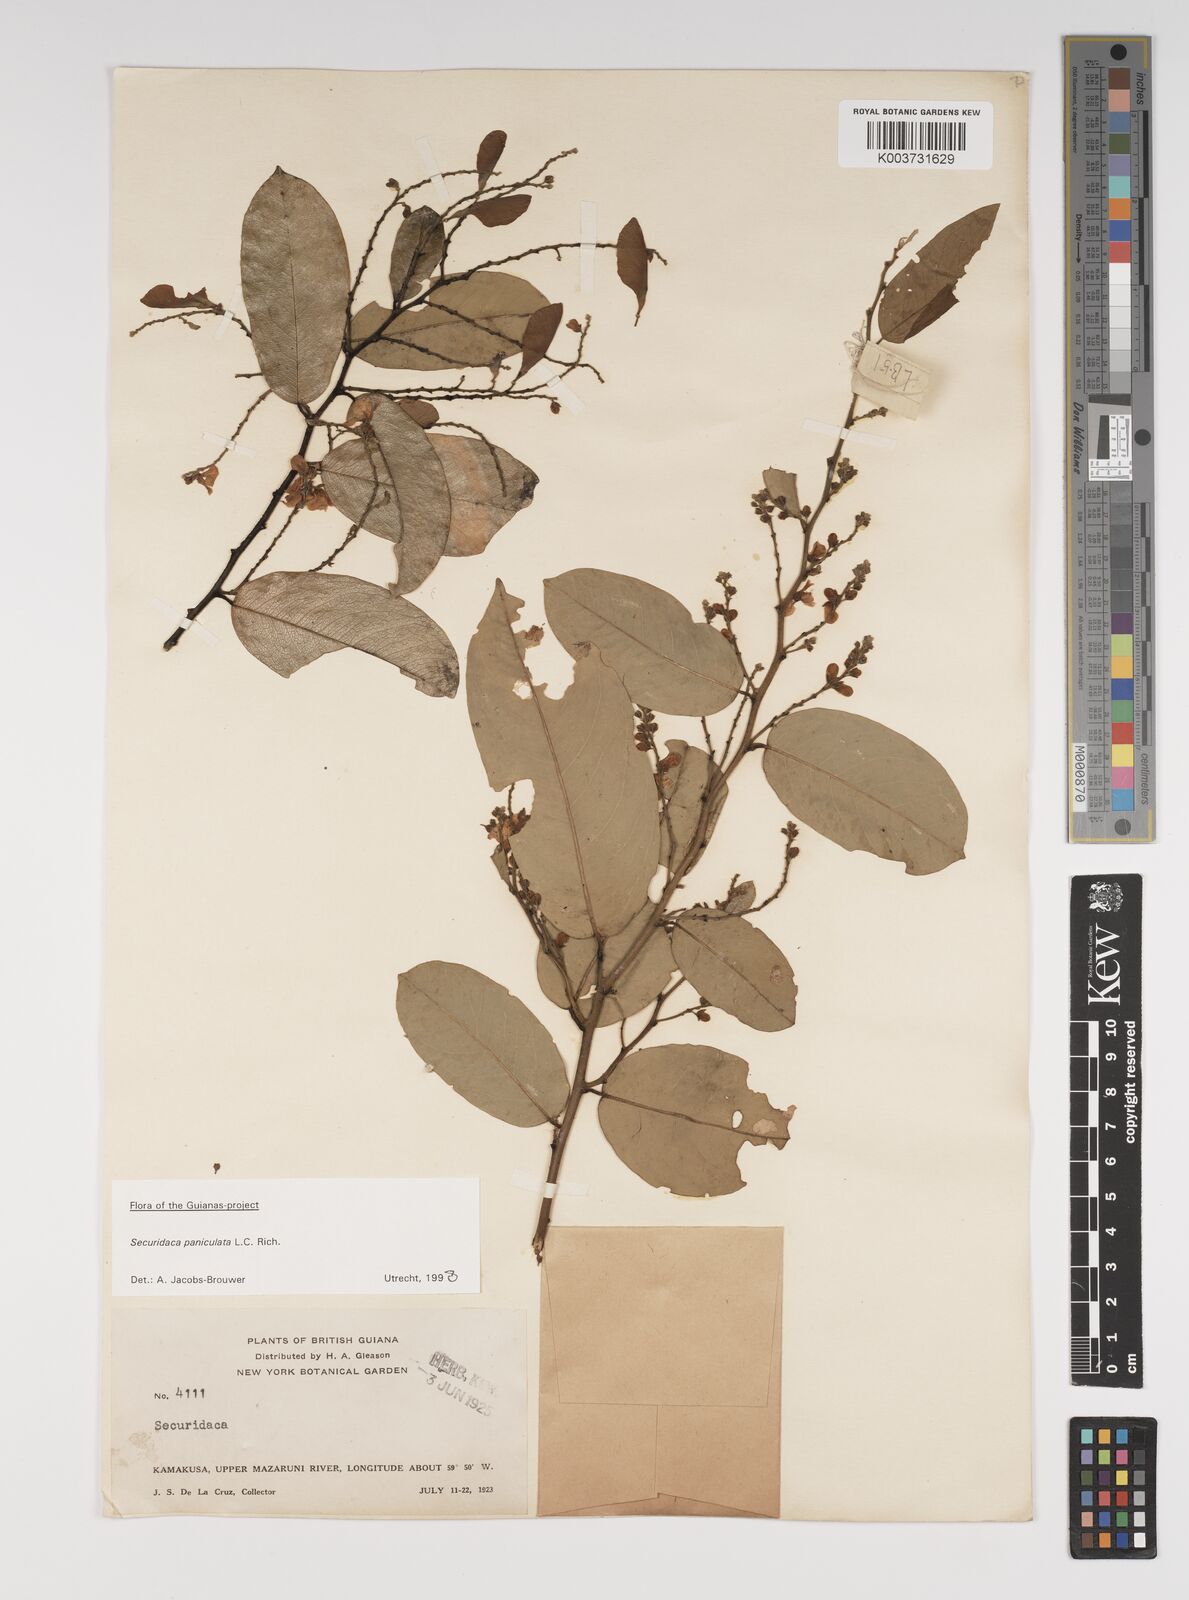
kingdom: Plantae
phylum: Tracheophyta
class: Magnoliopsida
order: Fabales
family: Polygalaceae
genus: Securidaca
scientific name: Securidaca paniculata
